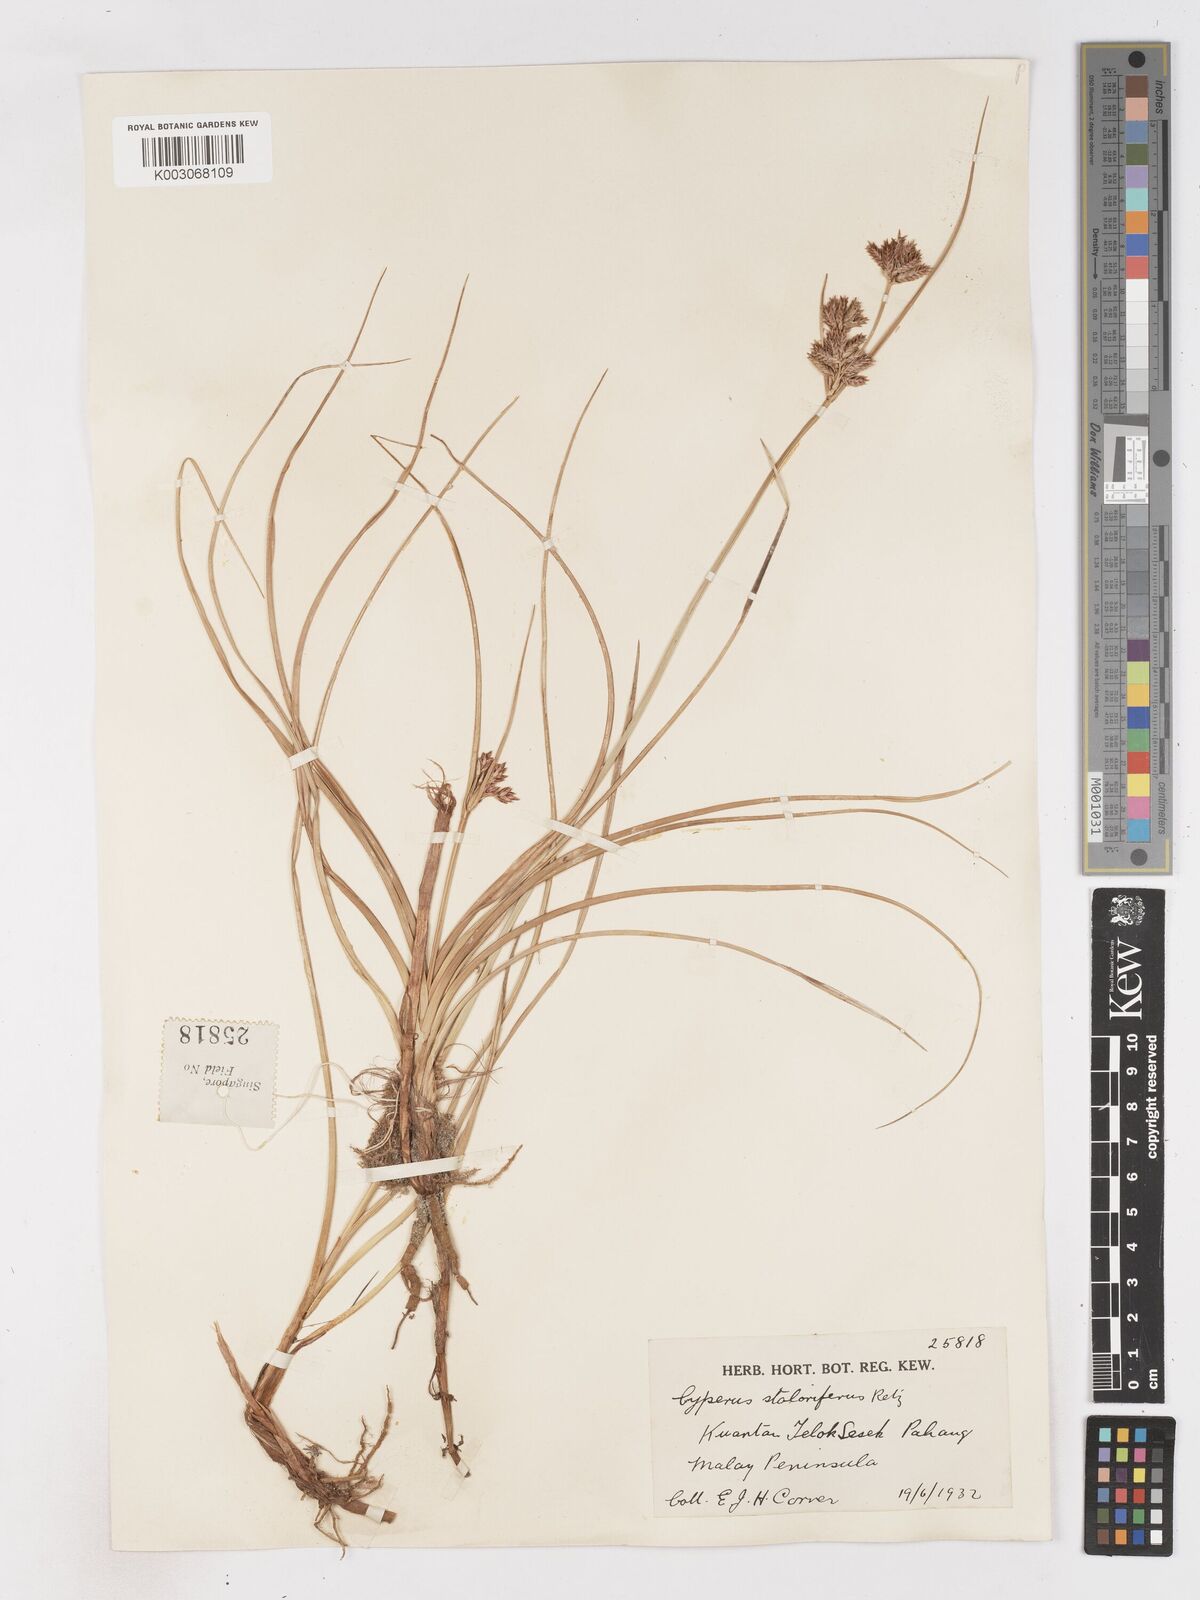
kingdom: Plantae
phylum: Tracheophyta
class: Liliopsida
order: Poales
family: Cyperaceae
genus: Cyperus
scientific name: Cyperus bulbosus
